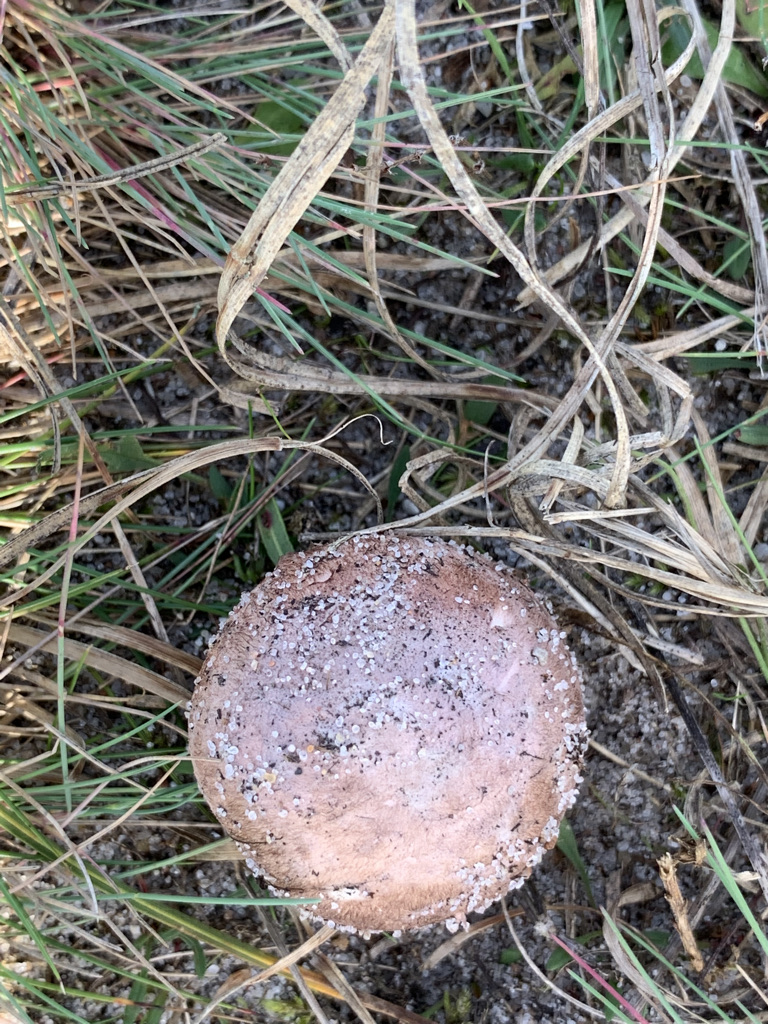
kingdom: Fungi
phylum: Basidiomycota
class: Agaricomycetes
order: Agaricales
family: Agaricaceae
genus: Agaricus
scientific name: Agaricus cupreobrunneus
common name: kobberbrun champignon
